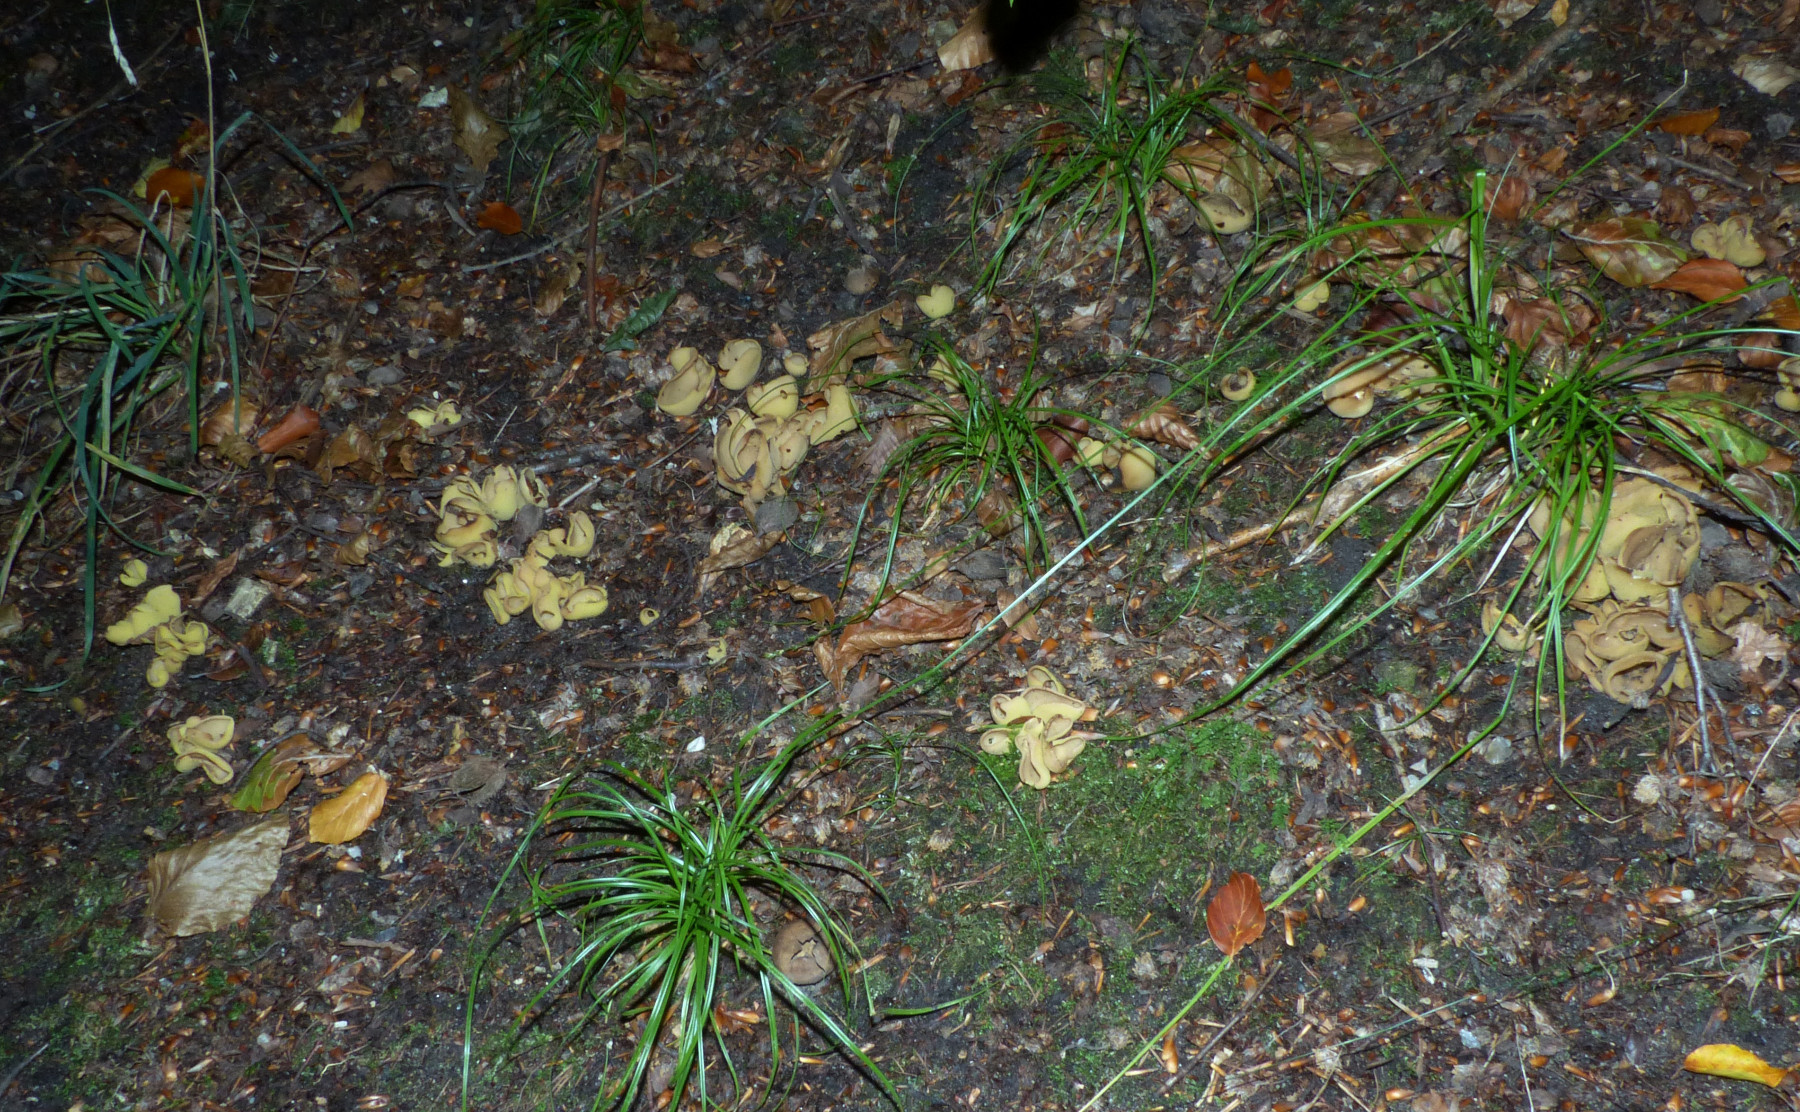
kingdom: Fungi
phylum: Ascomycota
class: Pezizomycetes
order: Pezizales
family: Otideaceae
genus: Otidea
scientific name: Otidea cantharella
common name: citrongul ørebæger
